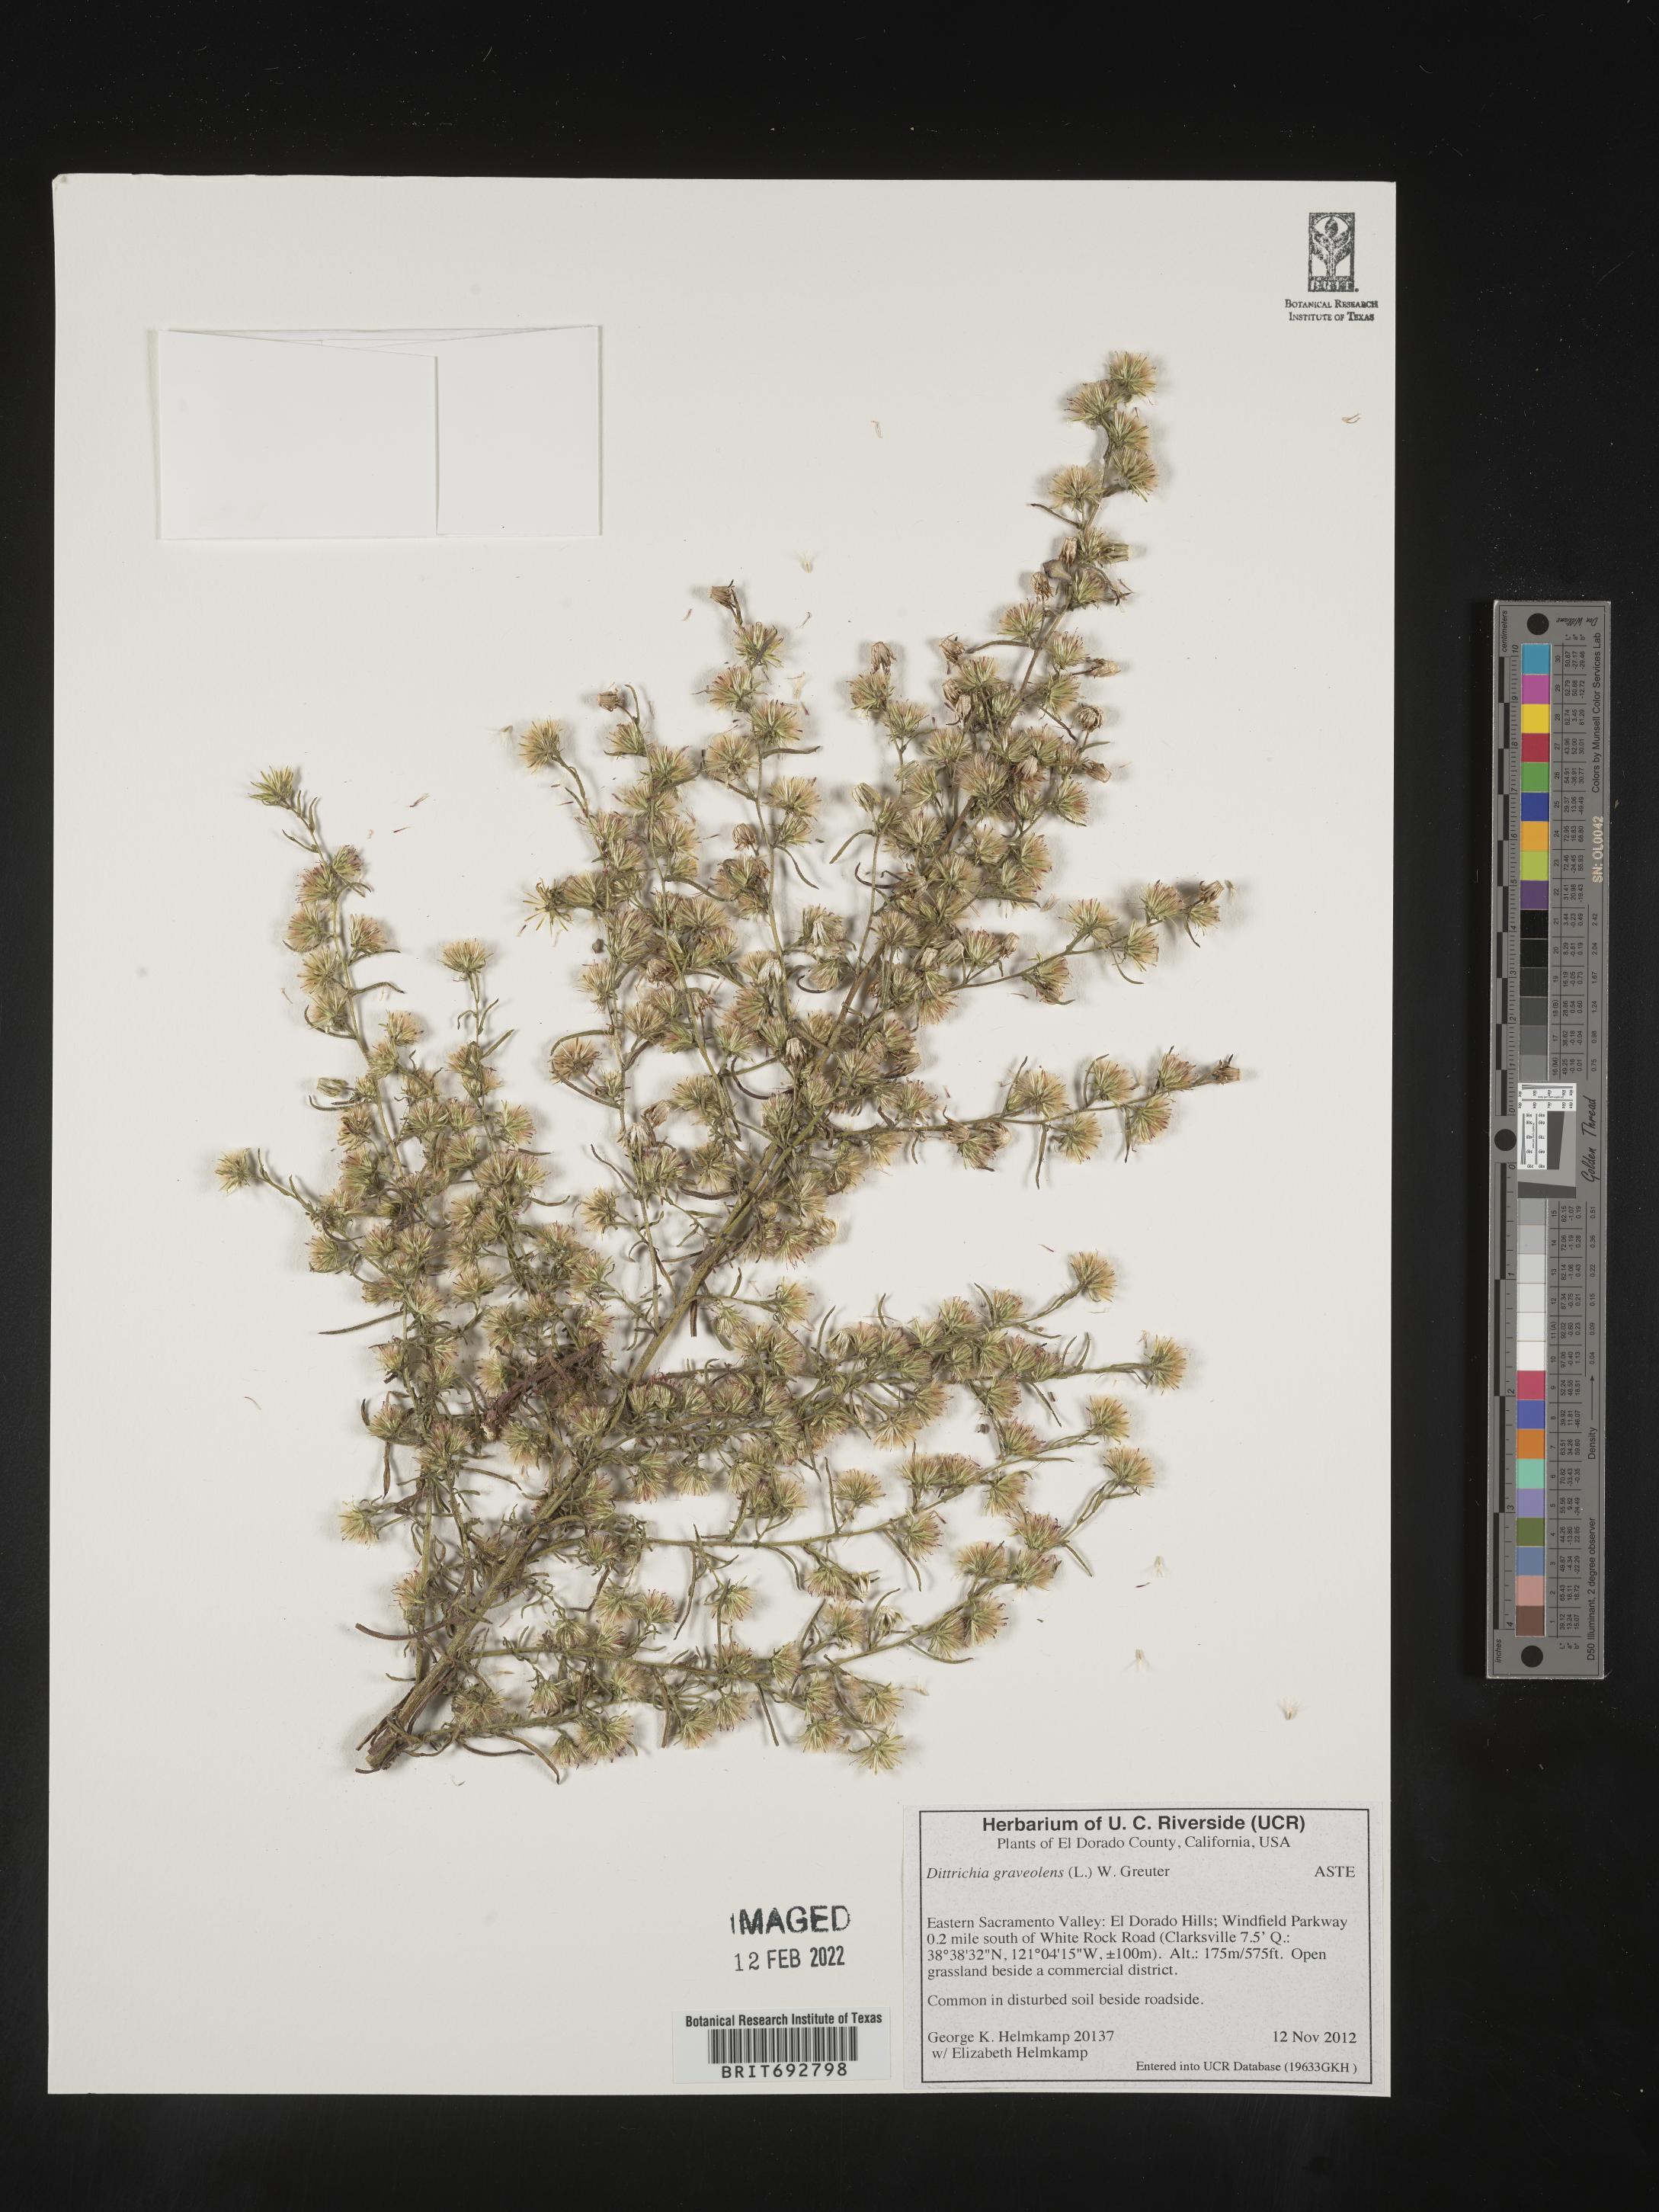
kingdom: Plantae
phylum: Tracheophyta
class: Magnoliopsida
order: Asterales
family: Asteraceae
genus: Dittrichia
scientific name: Dittrichia
